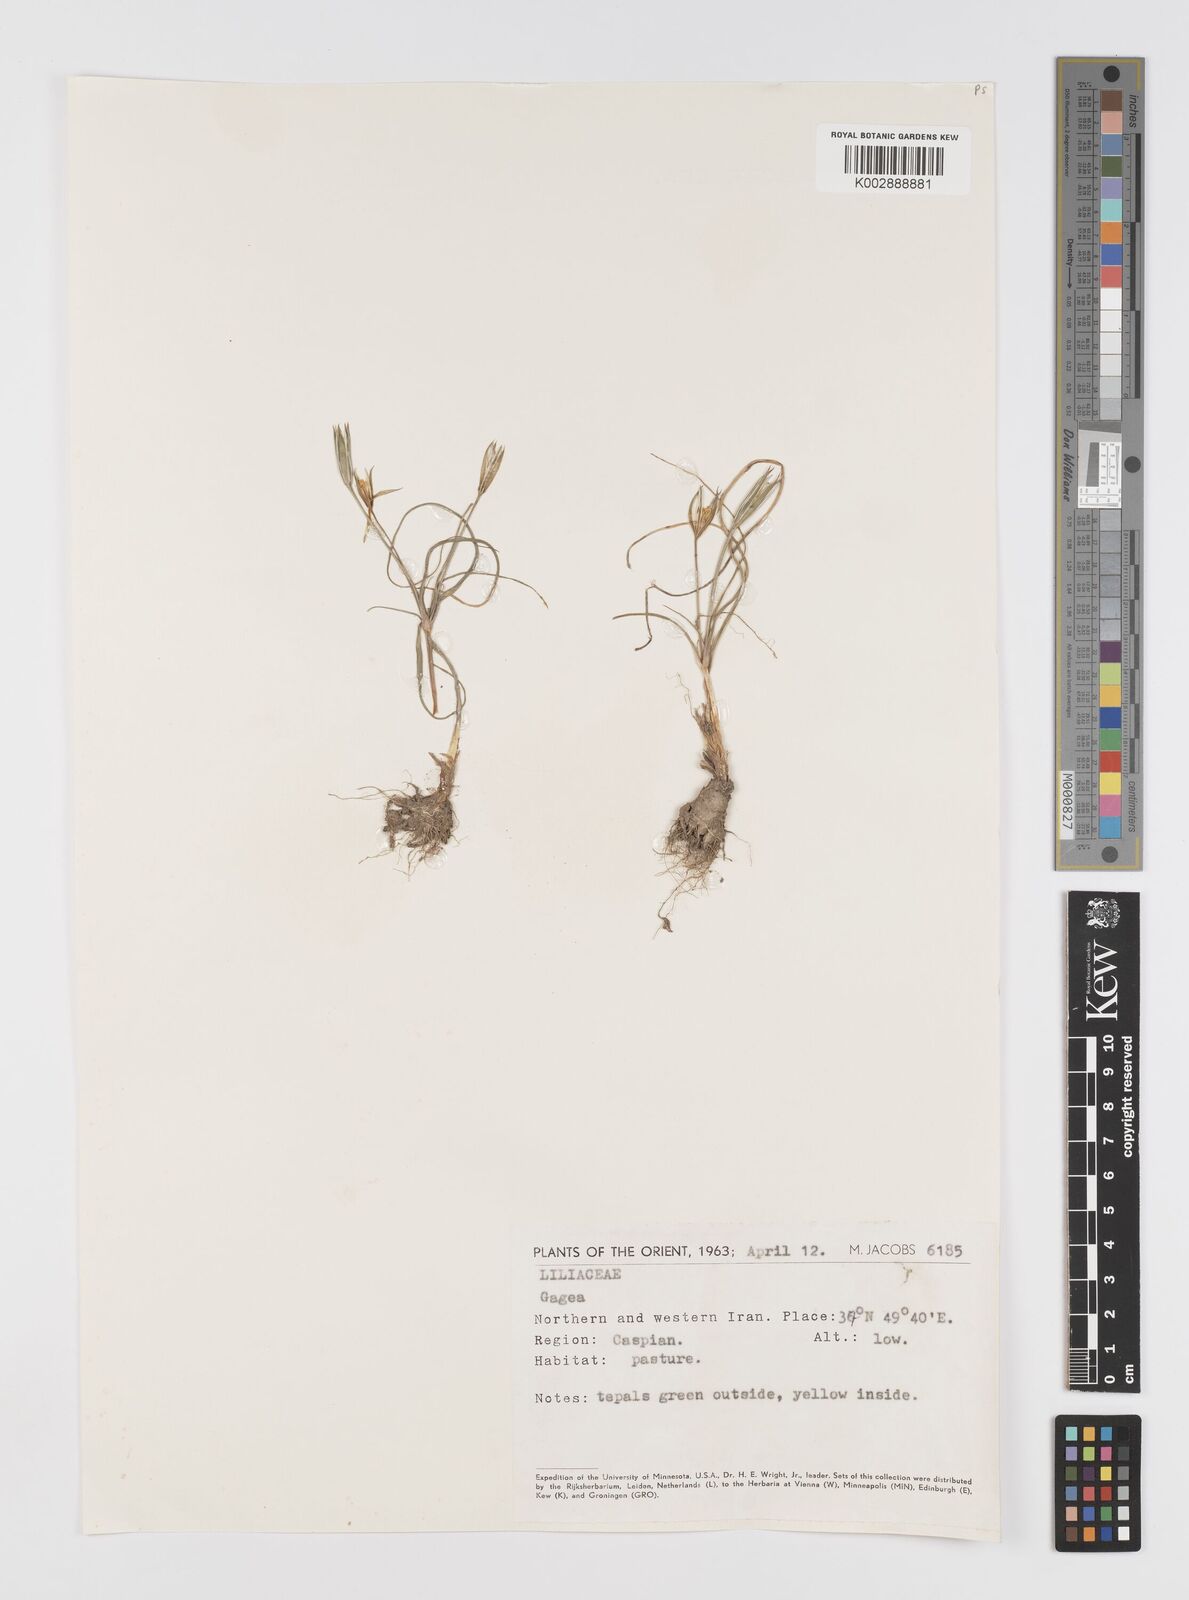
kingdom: Plantae
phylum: Tracheophyta
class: Liliopsida
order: Liliales
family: Liliaceae
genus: Gagea
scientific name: Gagea
